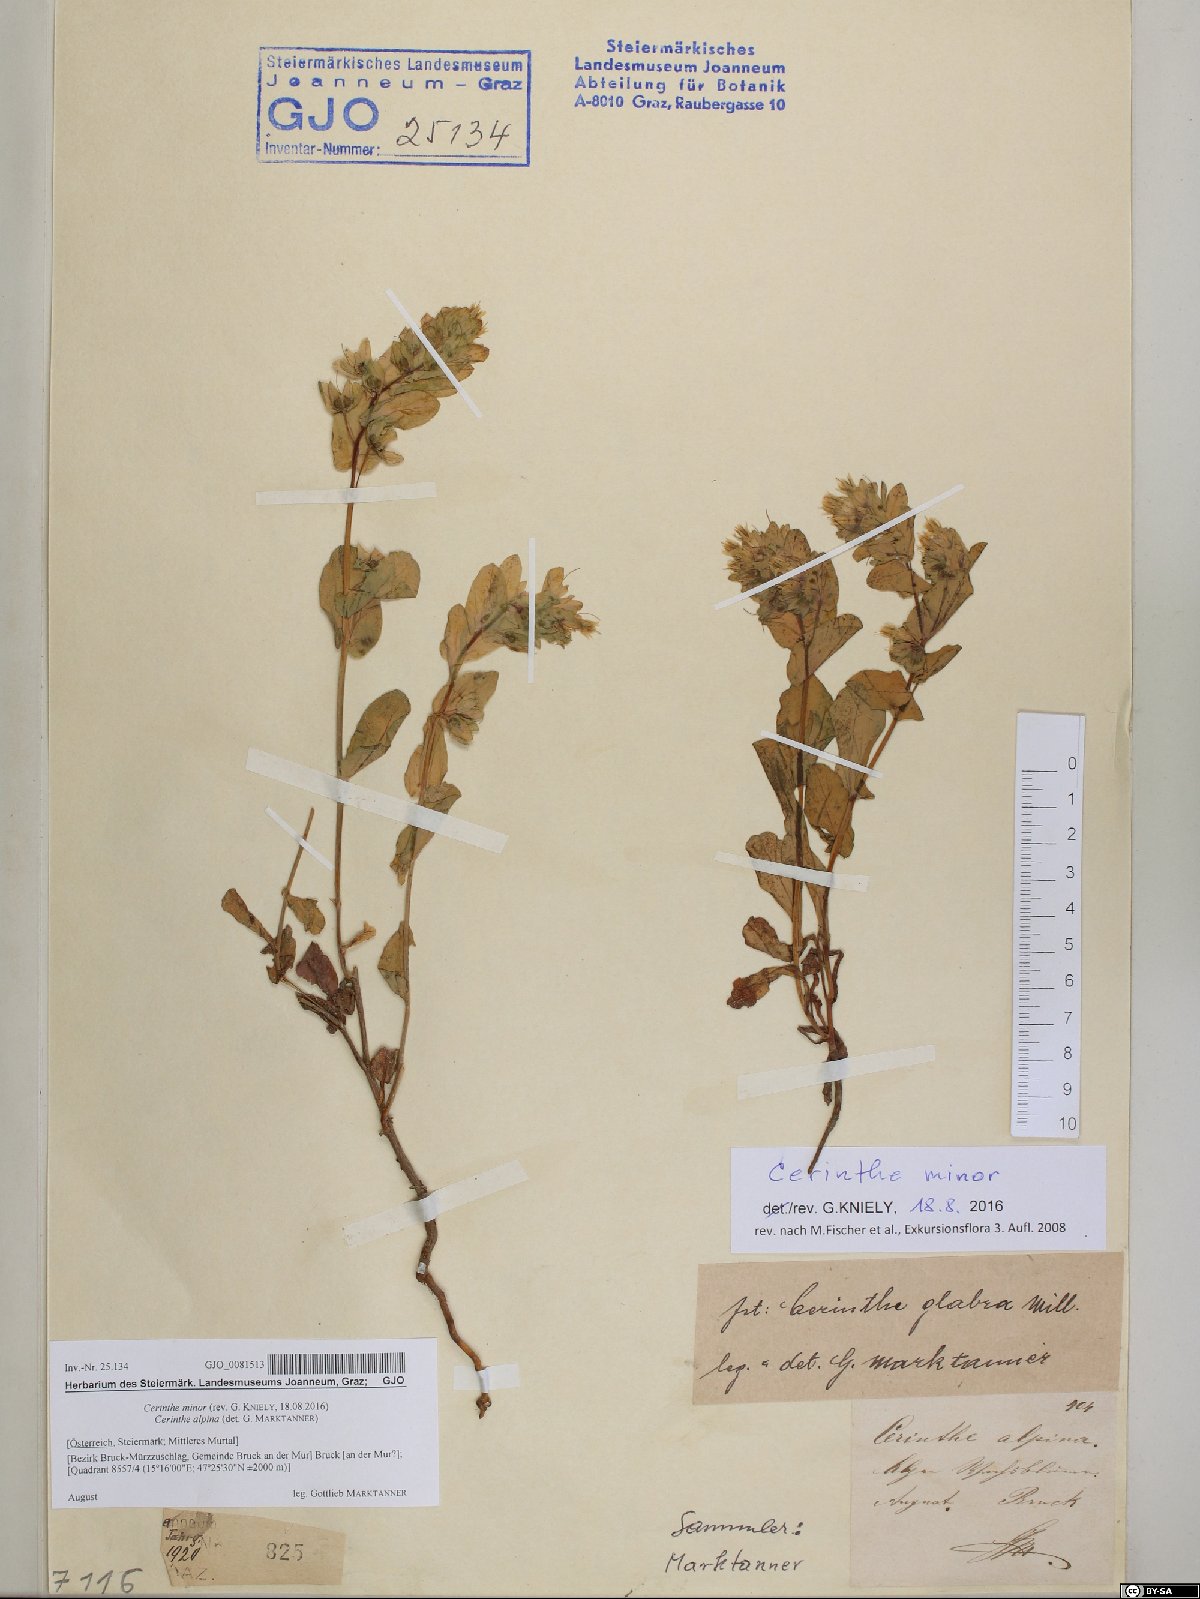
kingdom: Plantae
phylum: Tracheophyta
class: Magnoliopsida
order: Boraginales
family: Boraginaceae
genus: Cerinthe
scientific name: Cerinthe minor
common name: Lesser honeywort
